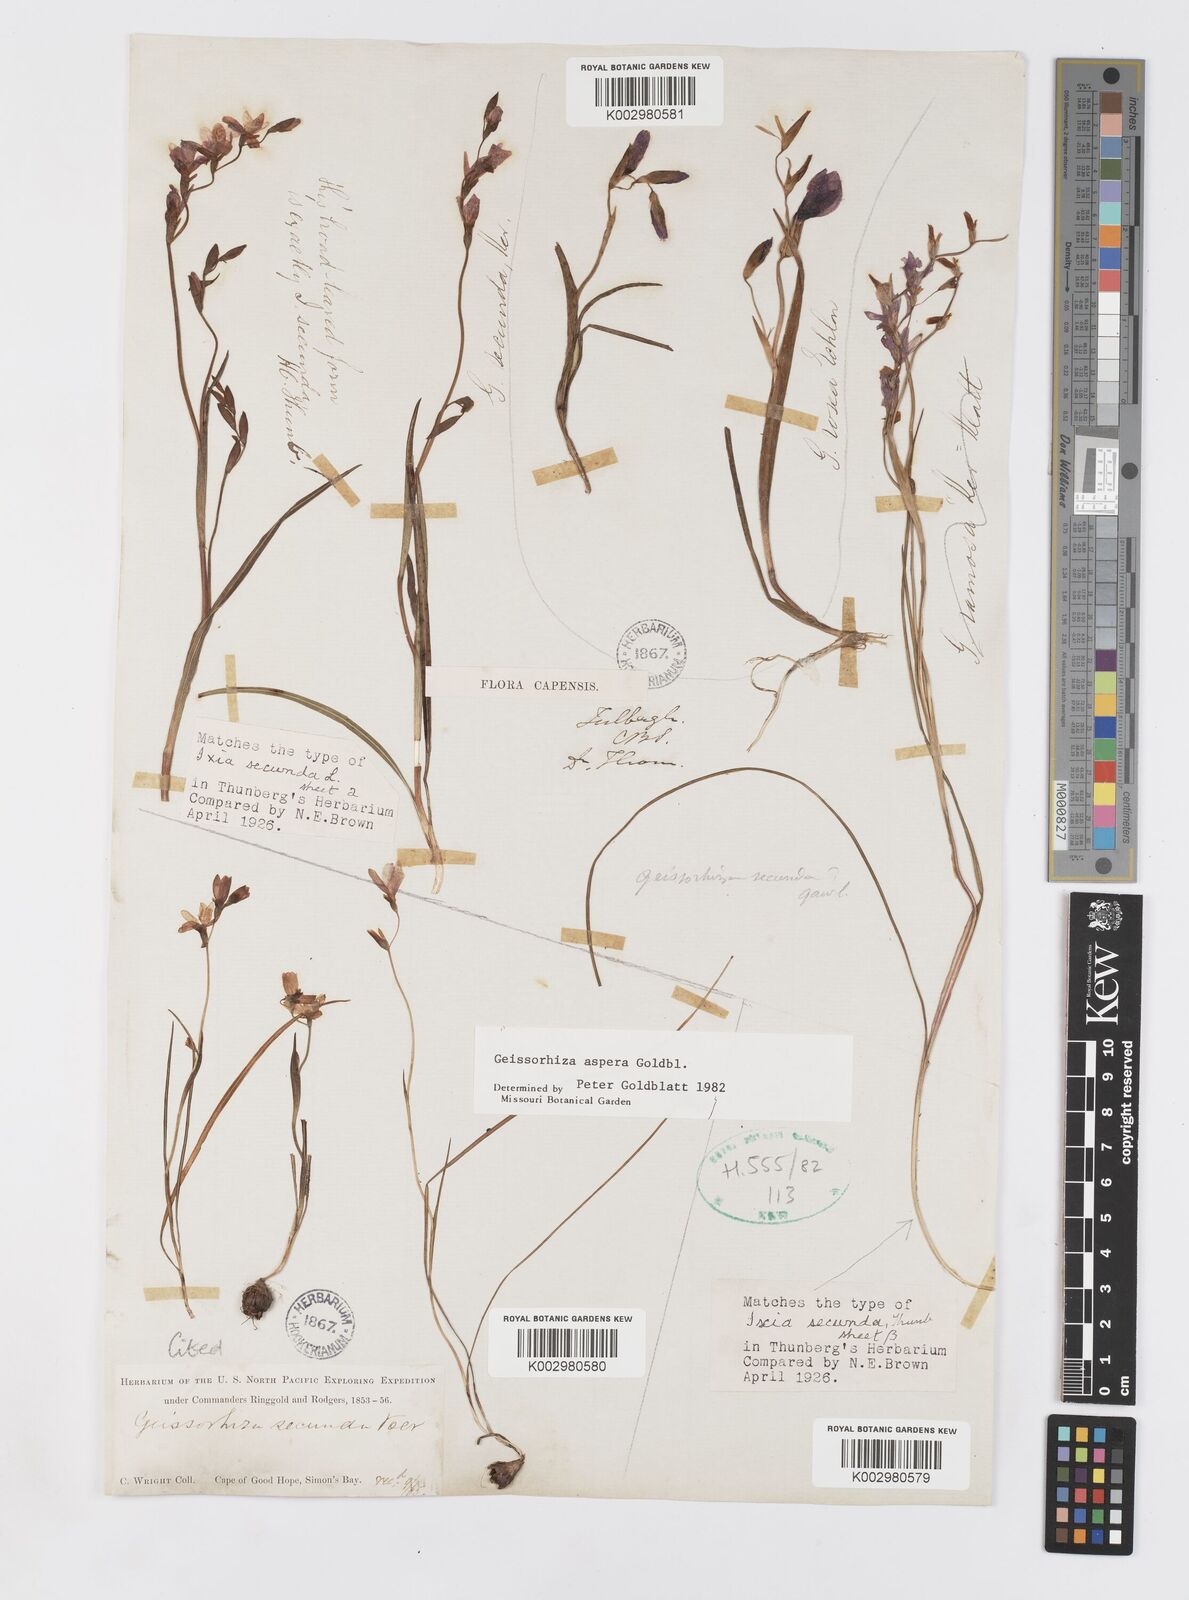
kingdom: Plantae
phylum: Tracheophyta
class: Liliopsida
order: Asparagales
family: Iridaceae
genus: Geissorhiza
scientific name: Geissorhiza aspera
